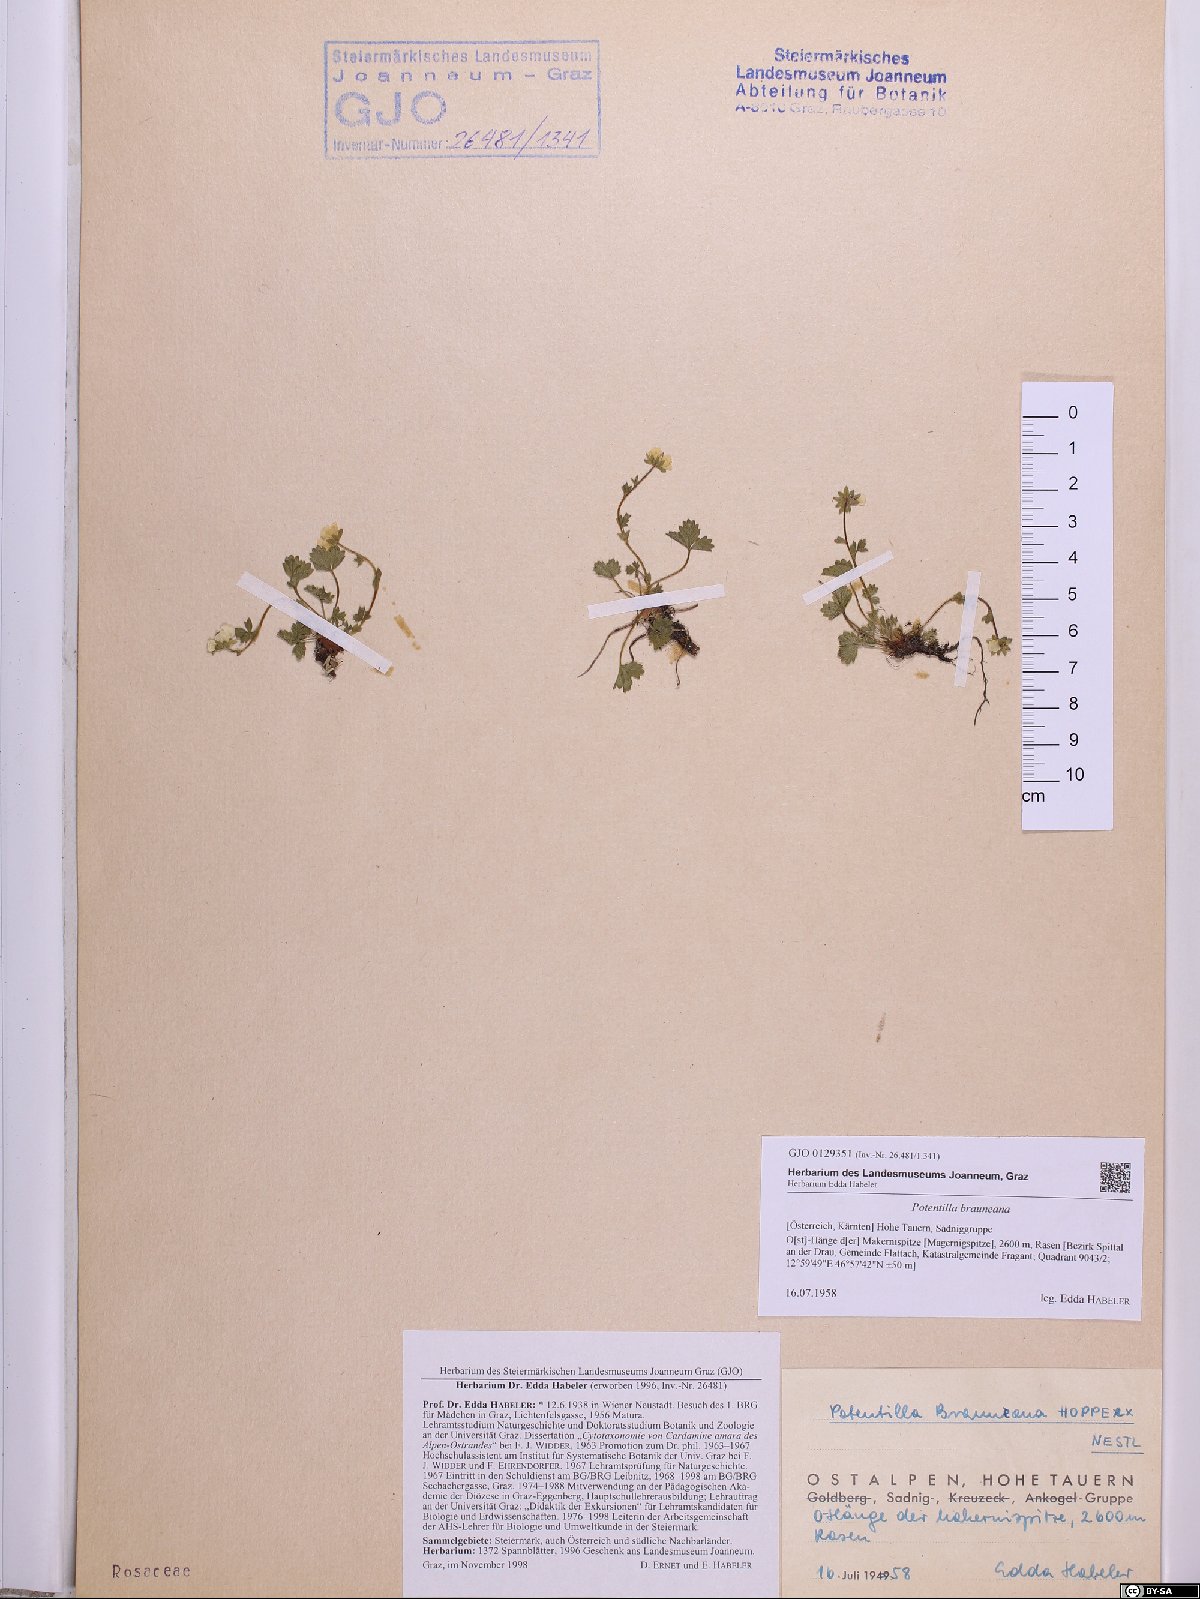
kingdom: Plantae
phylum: Tracheophyta
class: Magnoliopsida
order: Rosales
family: Rosaceae
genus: Potentilla
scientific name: Potentilla brauneana
